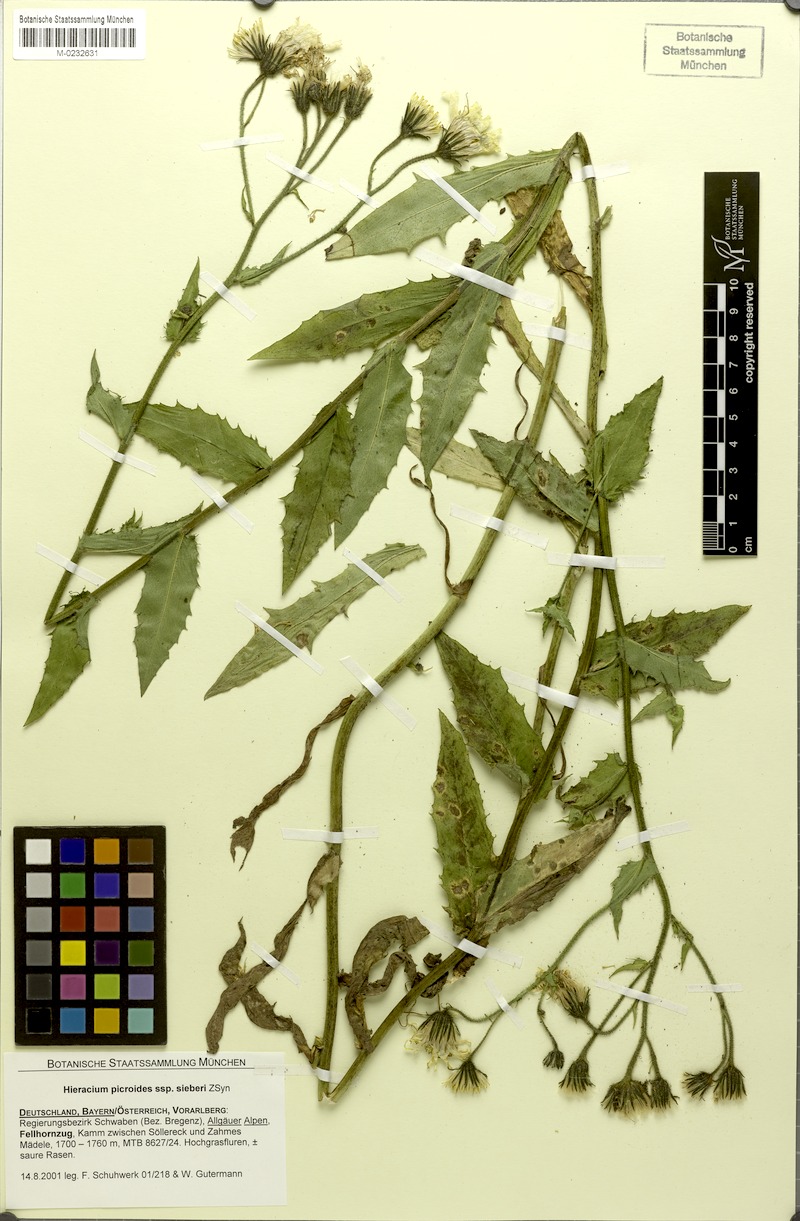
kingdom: Plantae
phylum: Tracheophyta
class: Magnoliopsida
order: Asterales
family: Asteraceae
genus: Hieracium
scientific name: Hieracium picroides
